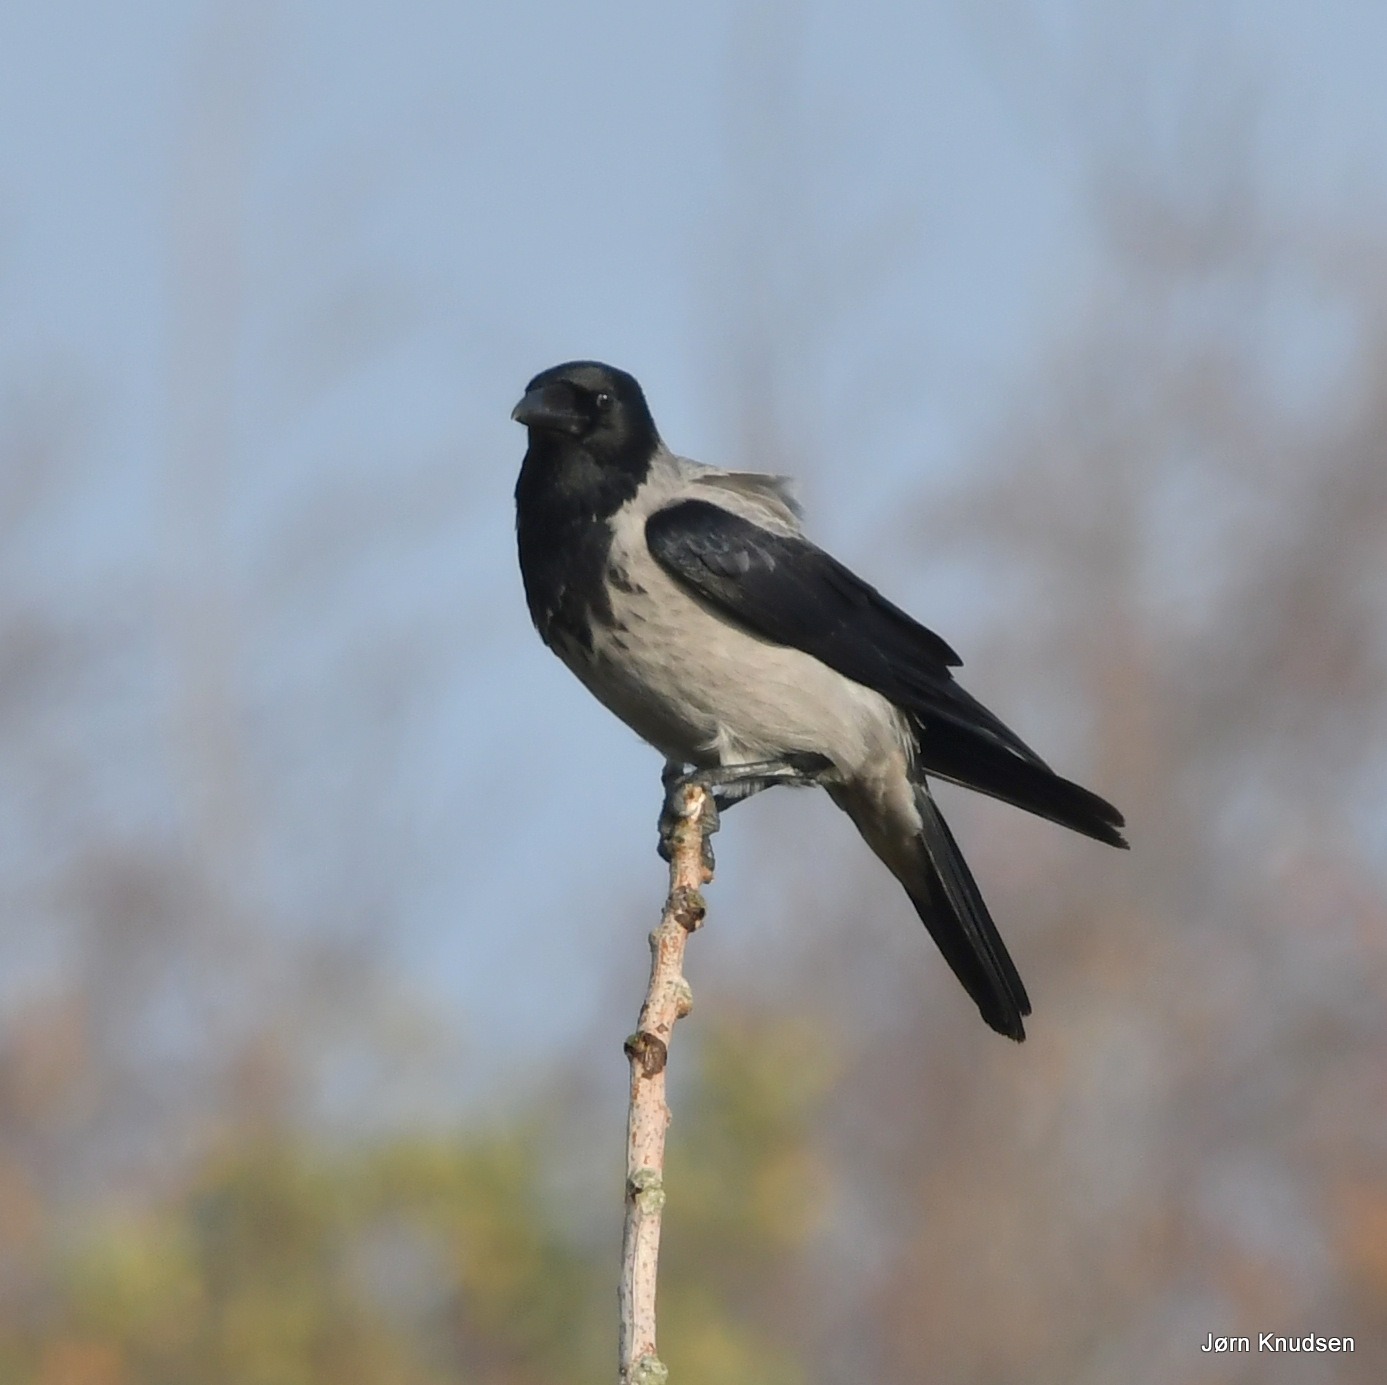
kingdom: Animalia
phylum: Chordata
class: Aves
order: Passeriformes
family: Corvidae
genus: Corvus
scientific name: Corvus cornix
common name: Gråkrage
